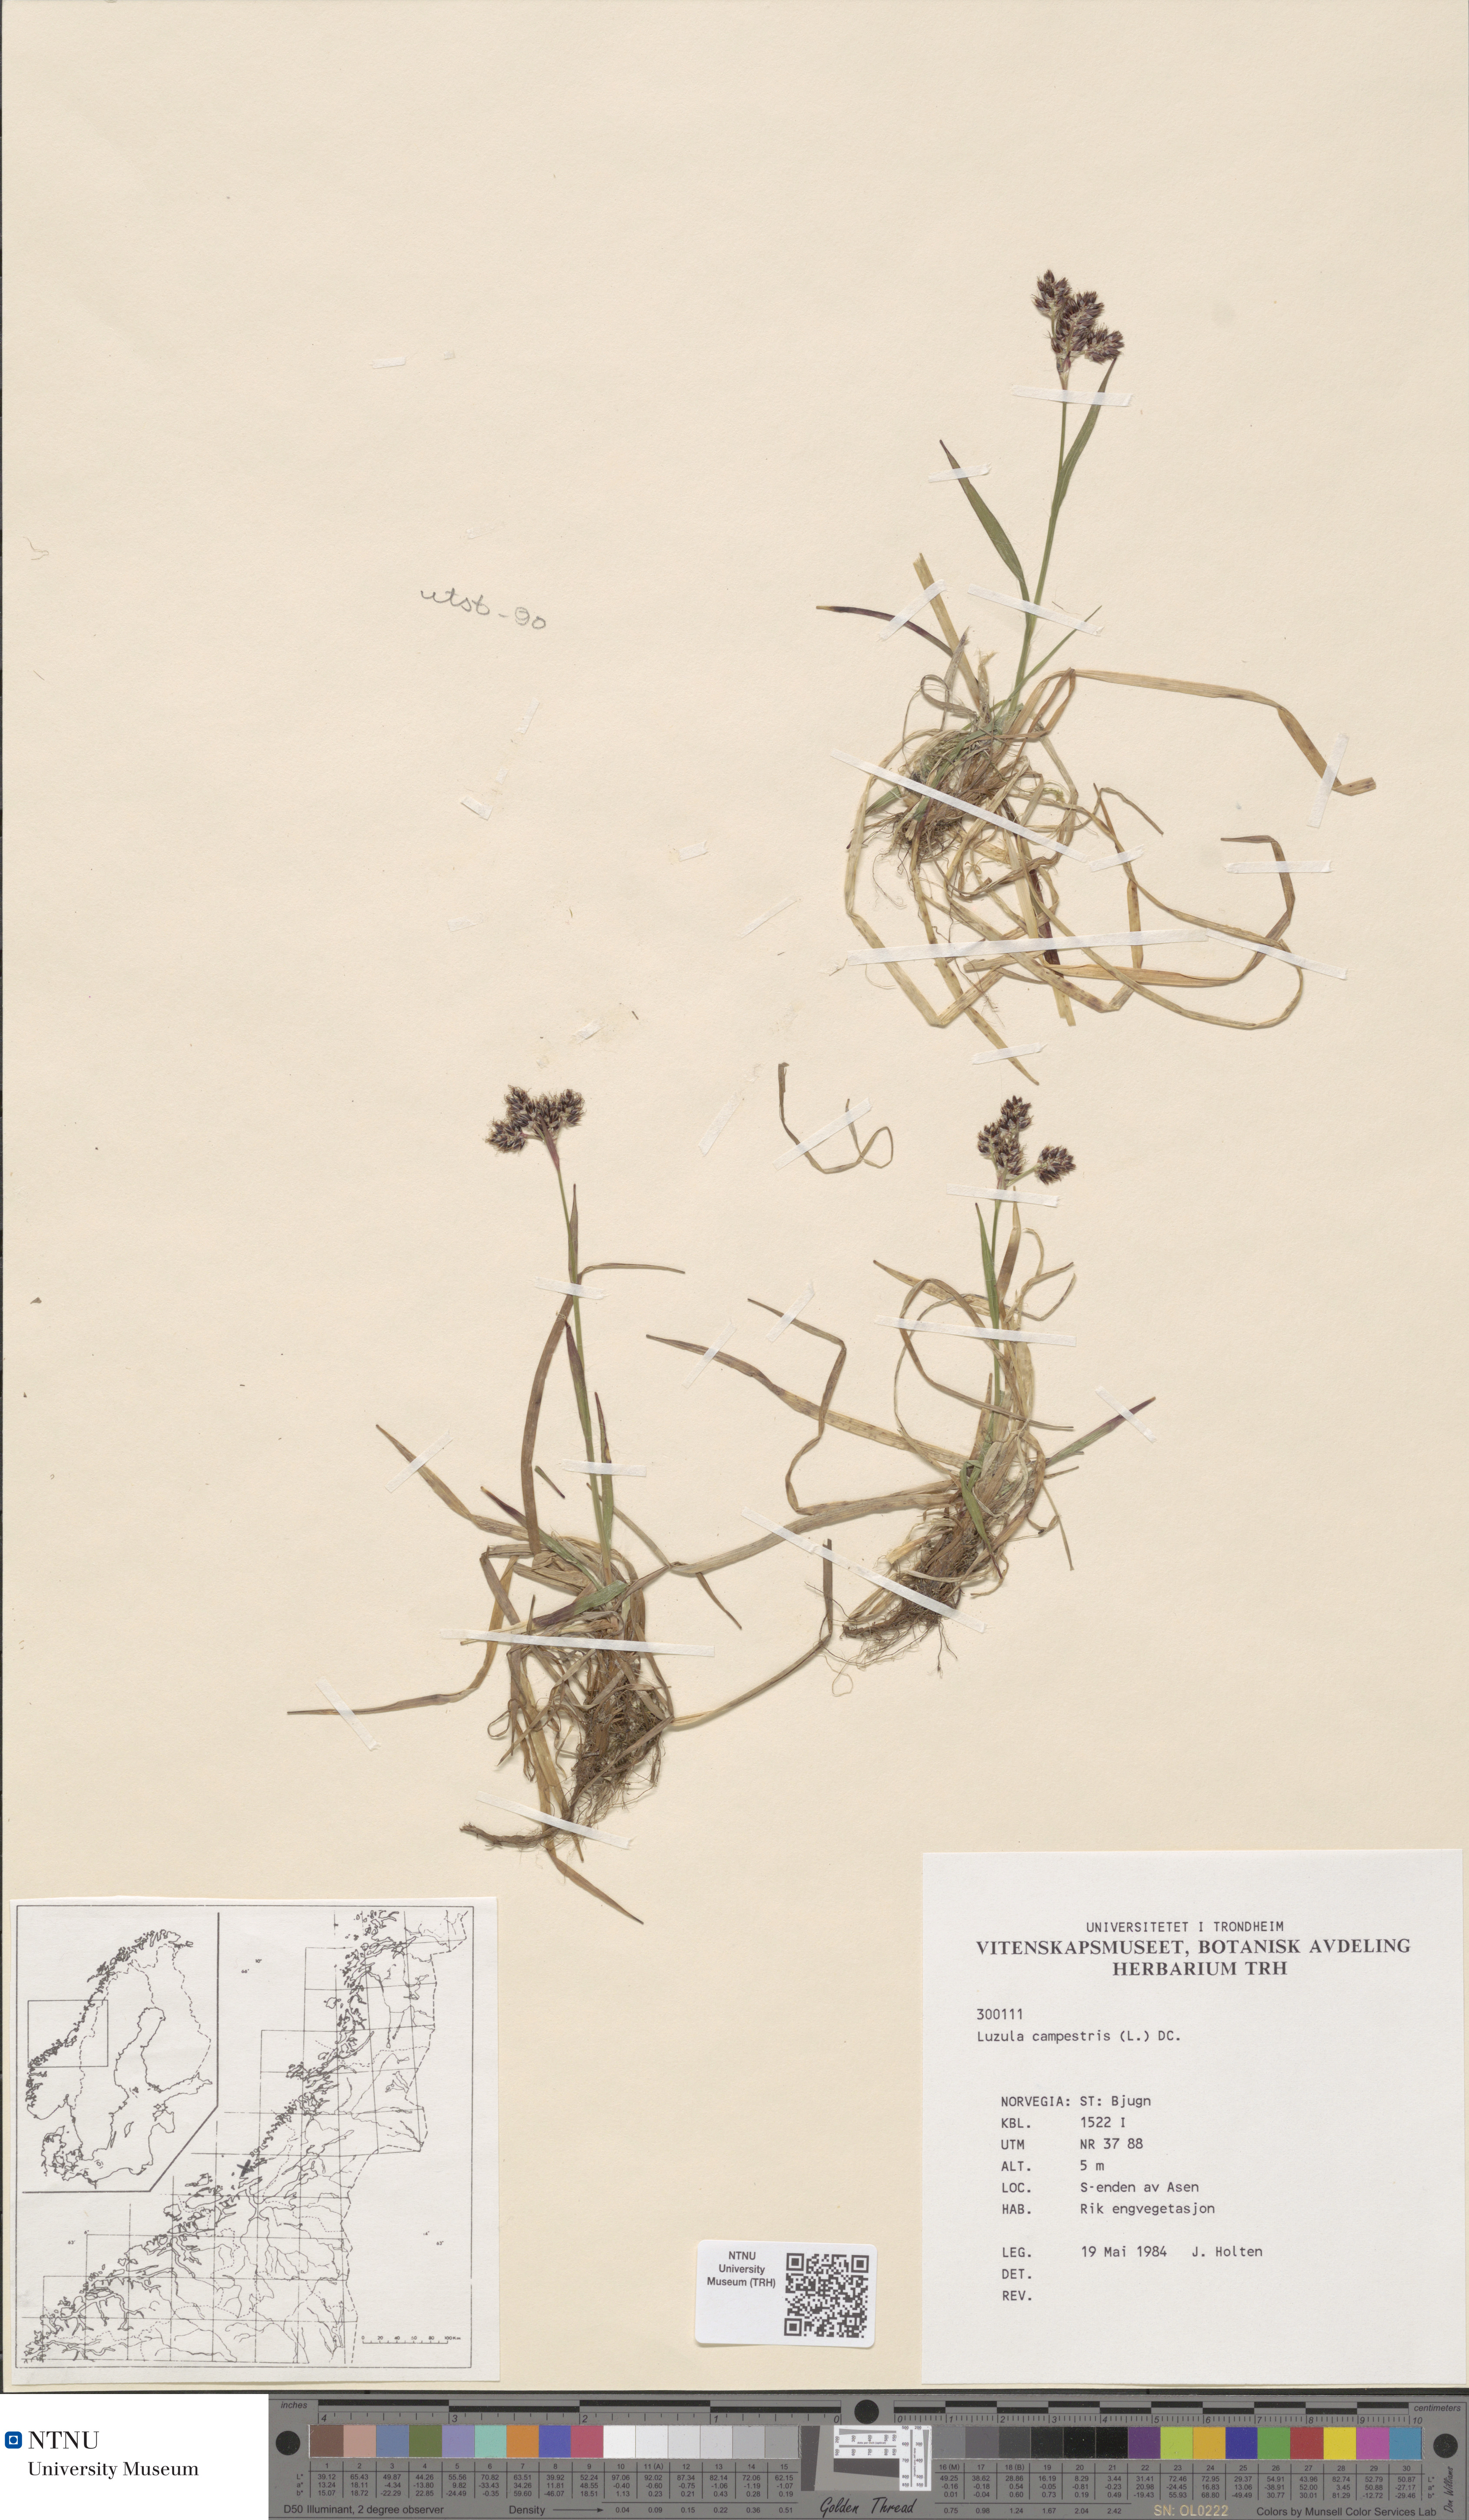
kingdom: Plantae
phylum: Tracheophyta
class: Liliopsida
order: Poales
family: Juncaceae
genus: Luzula
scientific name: Luzula campestris
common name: Field wood-rush
